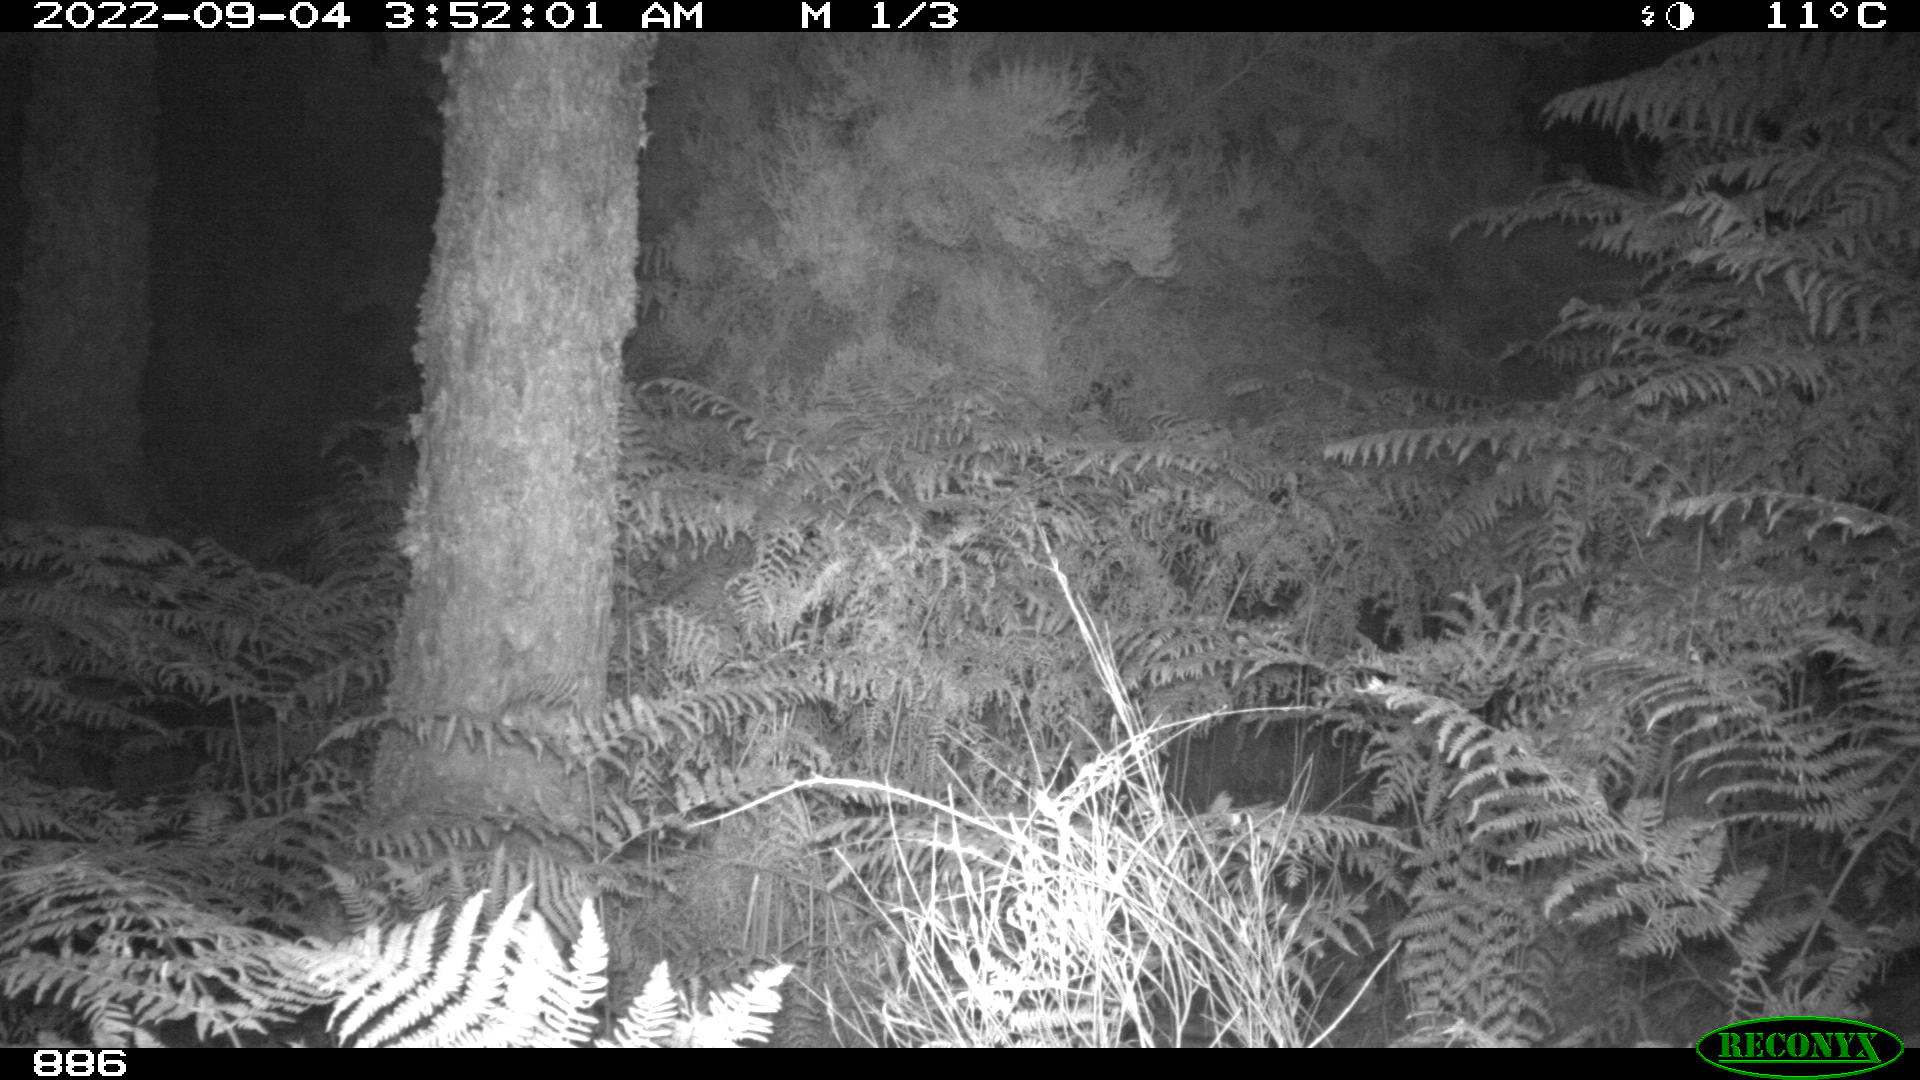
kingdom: Animalia
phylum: Chordata
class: Mammalia
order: Artiodactyla
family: Suidae
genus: Sus
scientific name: Sus scrofa
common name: Wild boar
